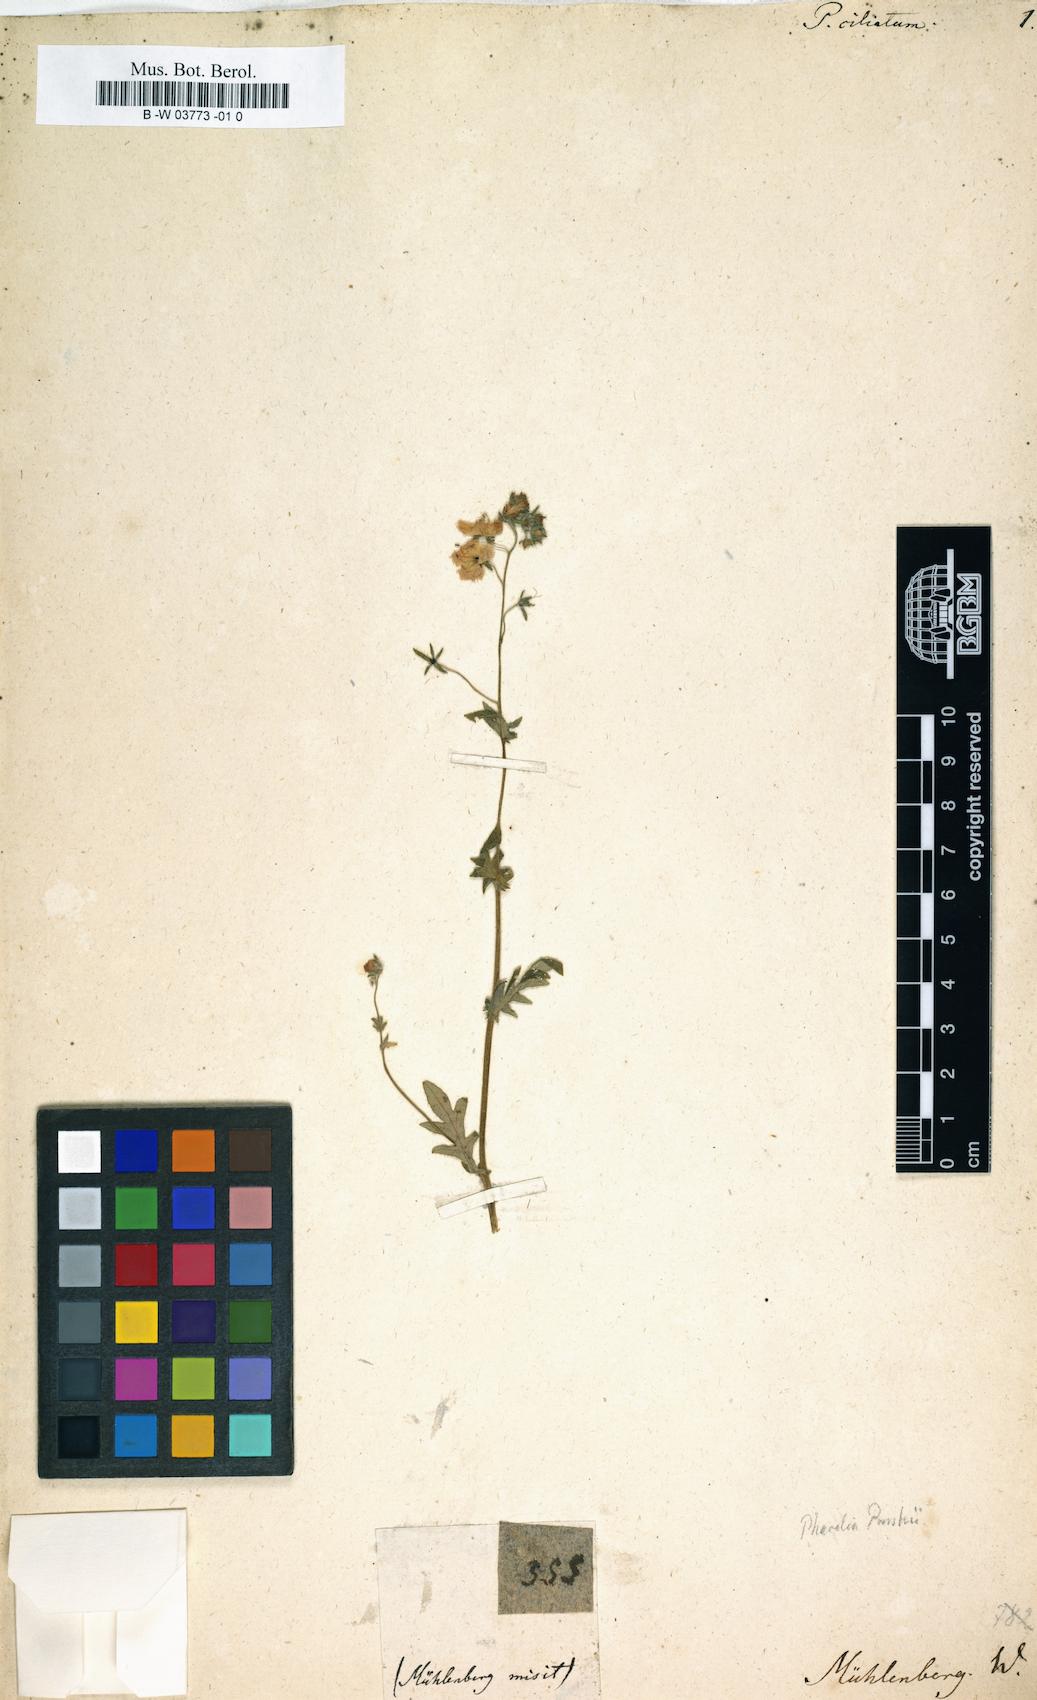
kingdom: Plantae
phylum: Tracheophyta
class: Magnoliopsida
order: Ericales
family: Polemoniaceae
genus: Phlox
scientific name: Phlox gracilis
